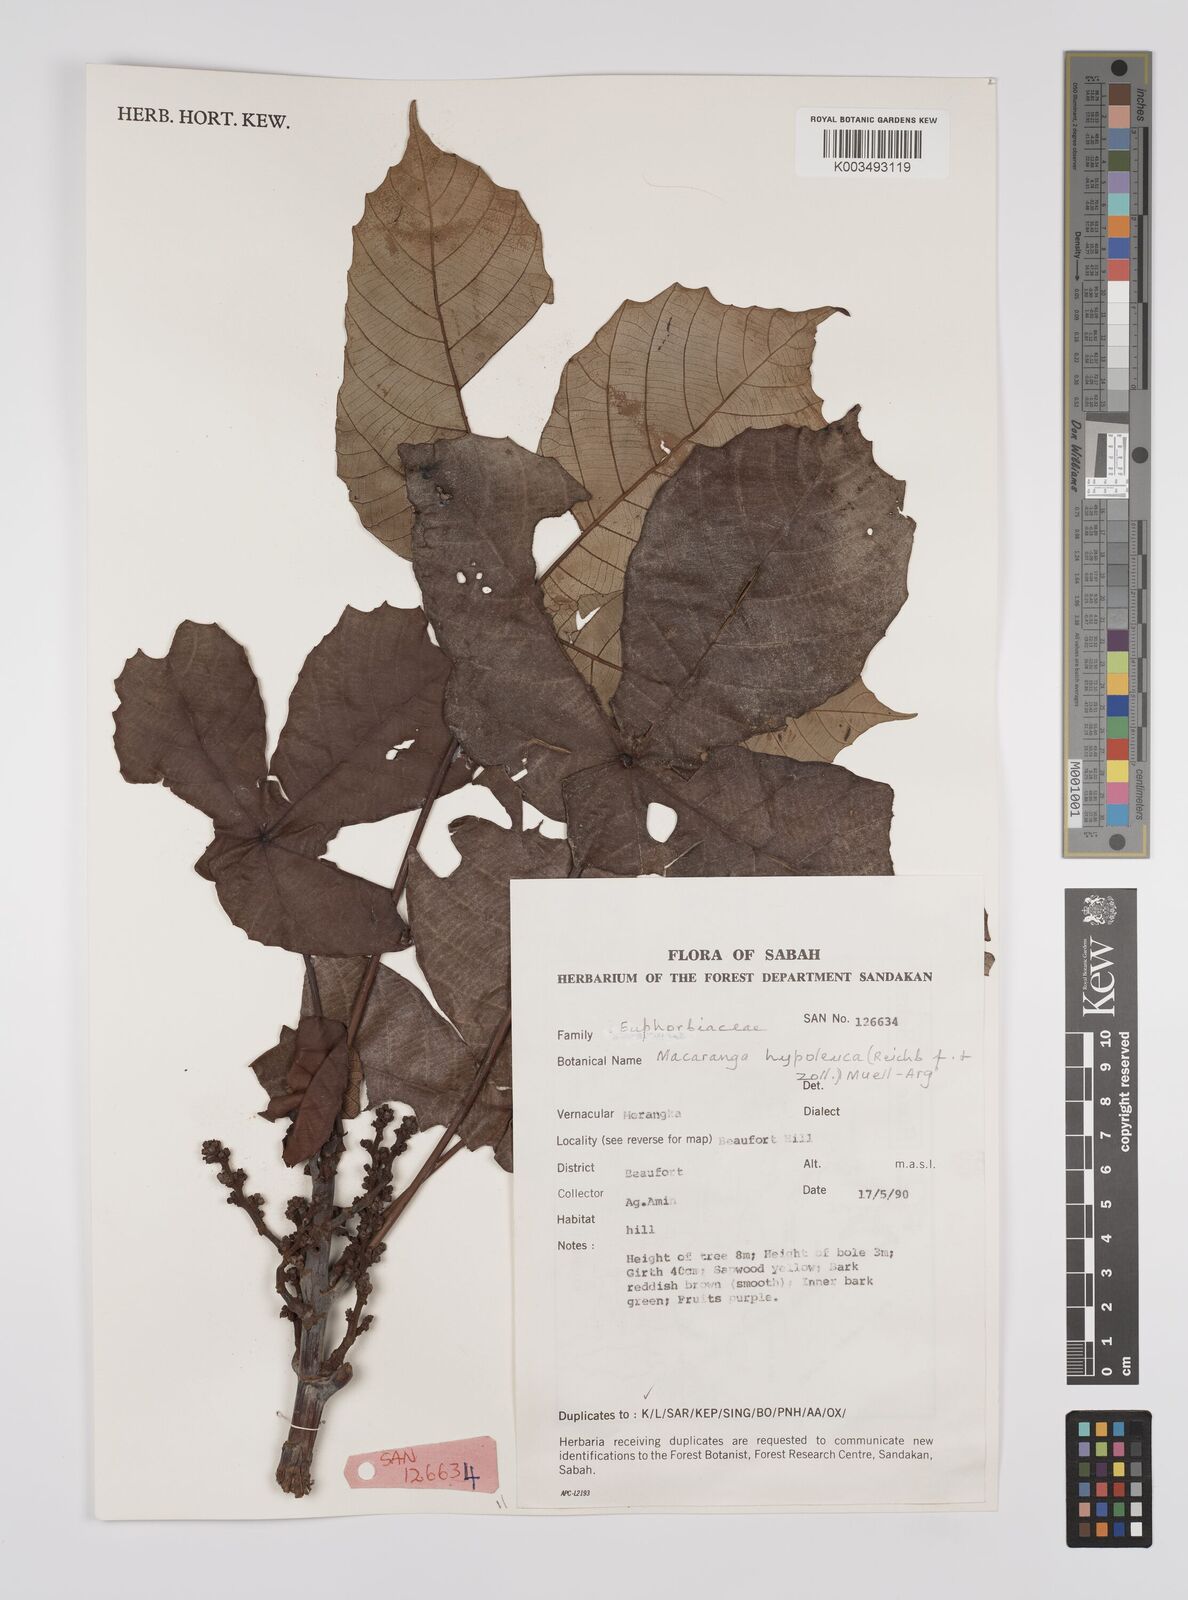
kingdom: Plantae
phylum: Tracheophyta
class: Magnoliopsida
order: Malpighiales
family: Euphorbiaceae
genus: Macaranga
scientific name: Macaranga hypoleuca
